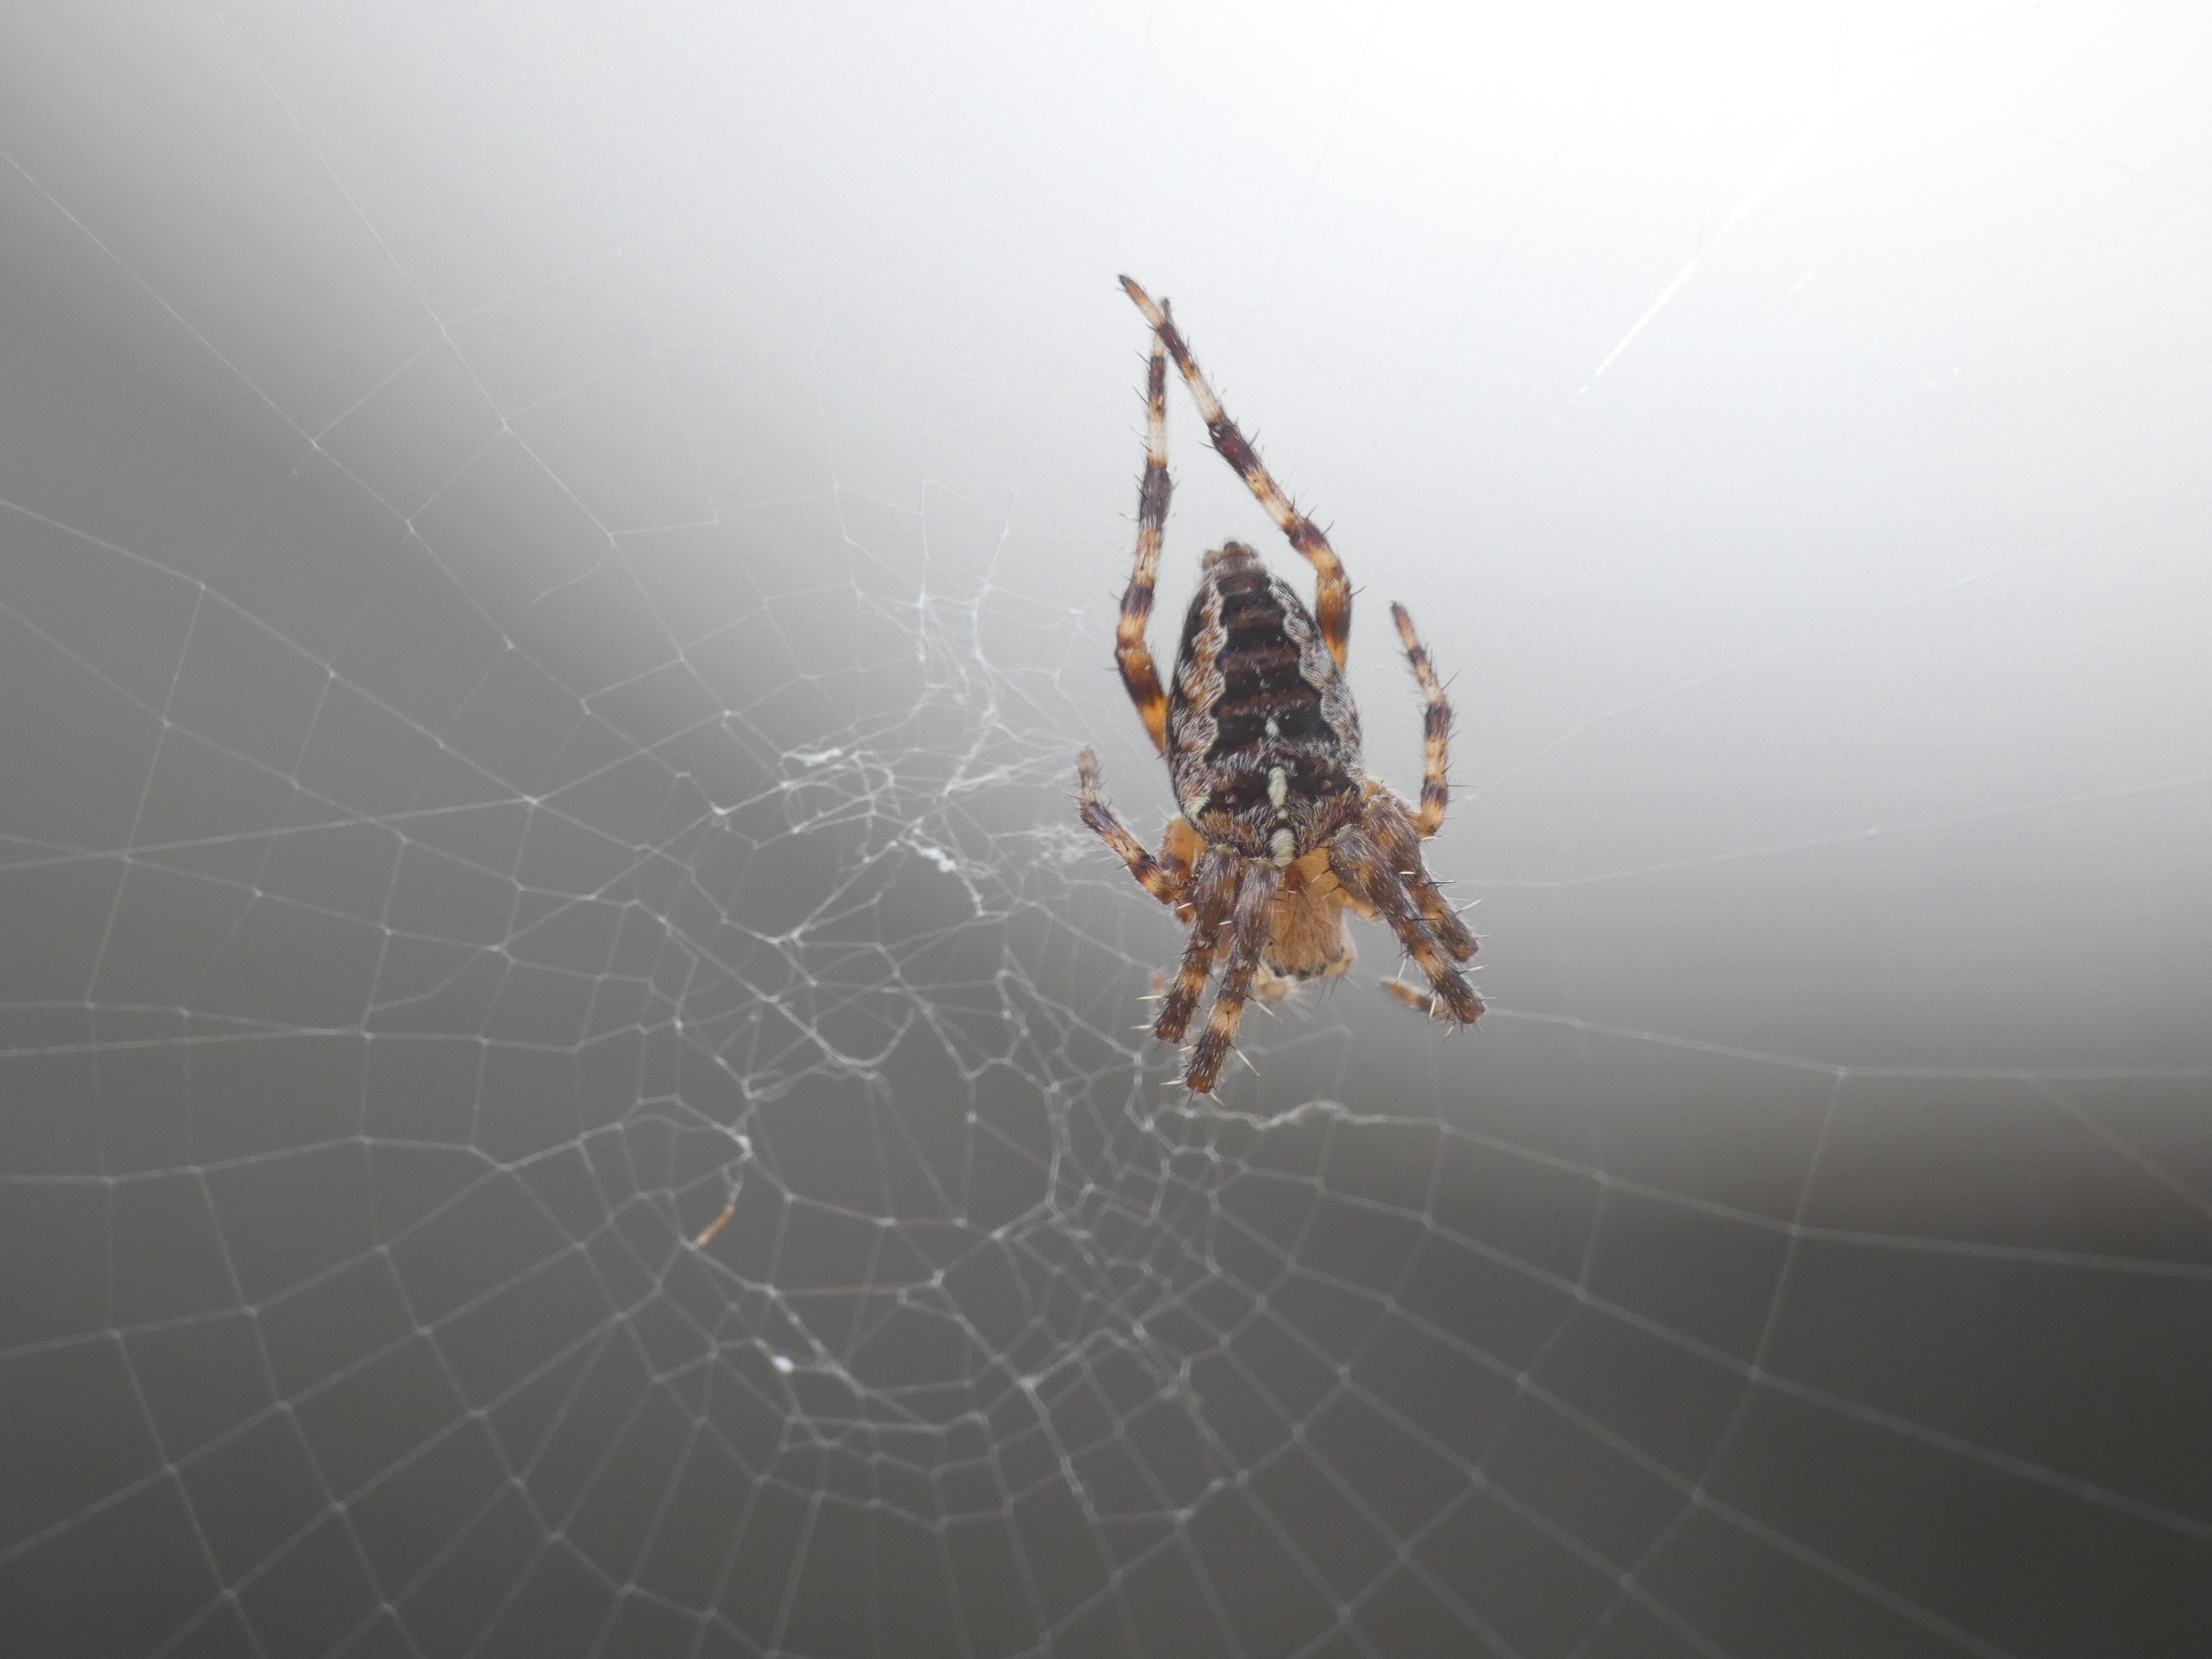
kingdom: Animalia
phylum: Arthropoda
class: Arachnida
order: Araneae
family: Araneidae
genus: Araneus
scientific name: Araneus diadematus
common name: Korsedderkop
